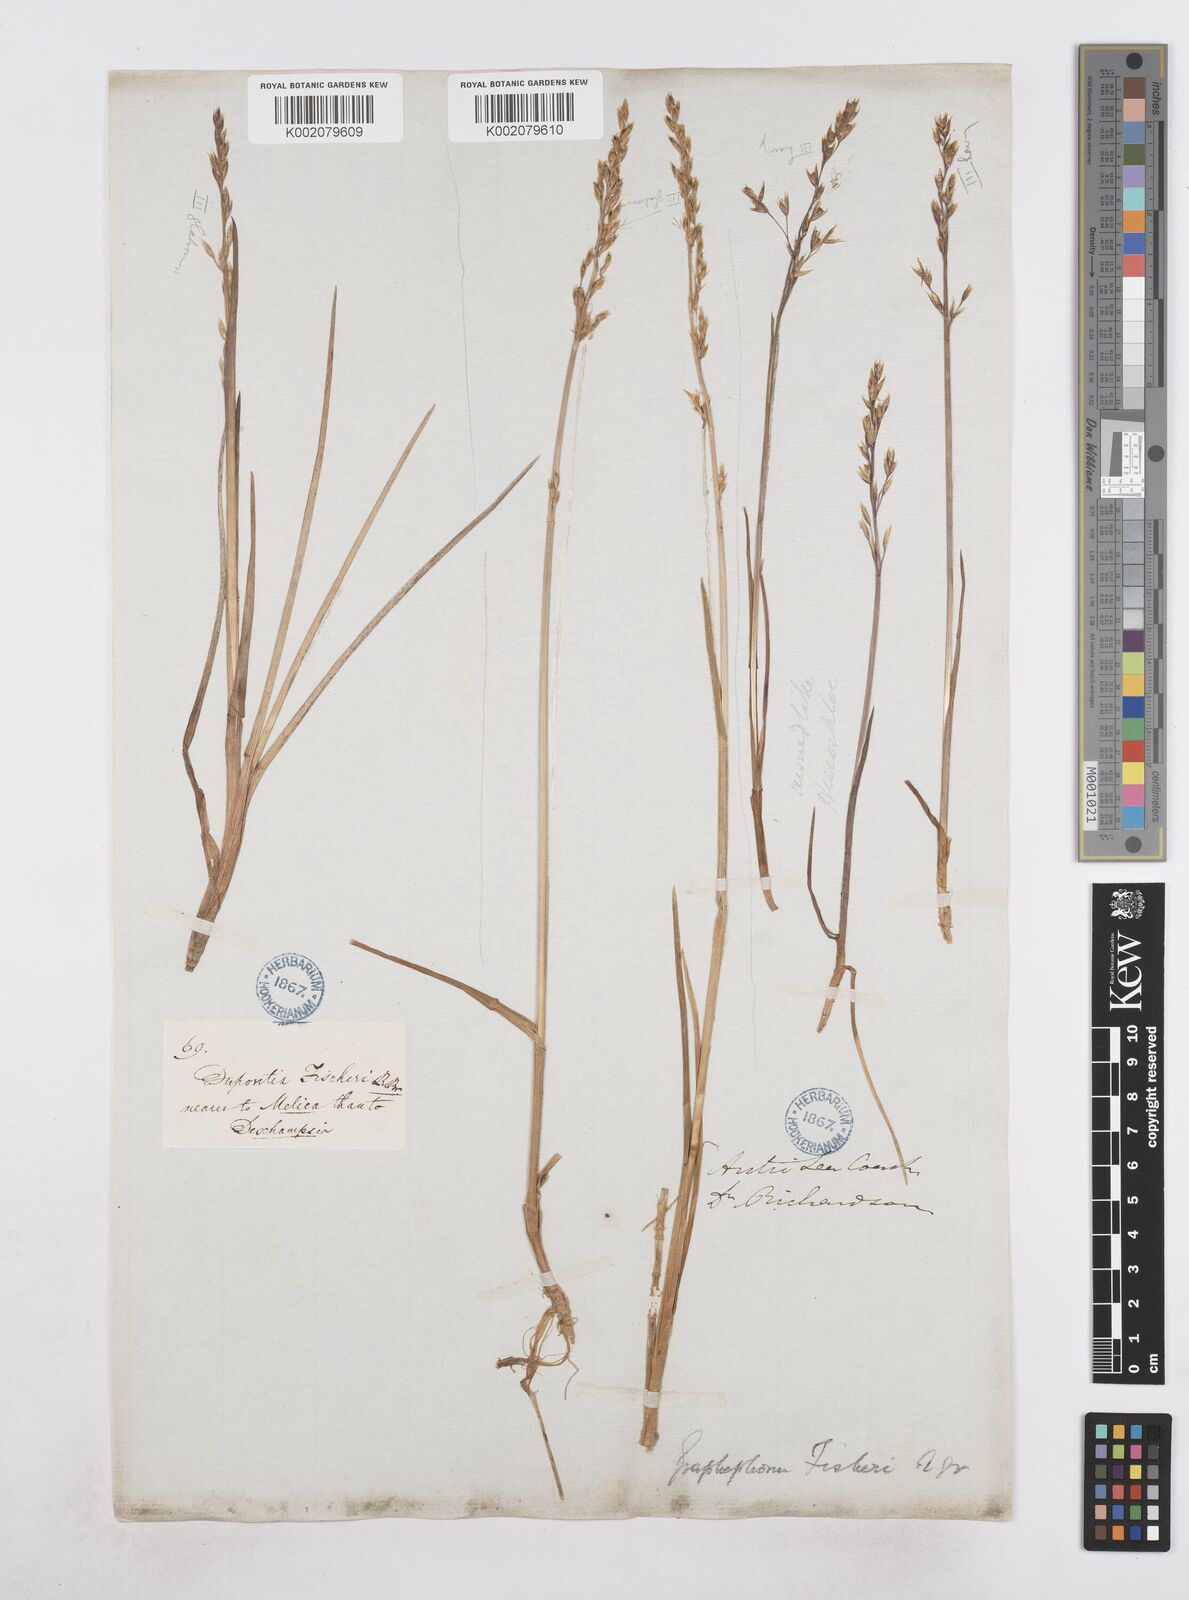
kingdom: Plantae
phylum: Tracheophyta
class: Liliopsida
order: Poales
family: Poaceae
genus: Dupontia
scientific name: Dupontia fisheri
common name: Tundra grass
